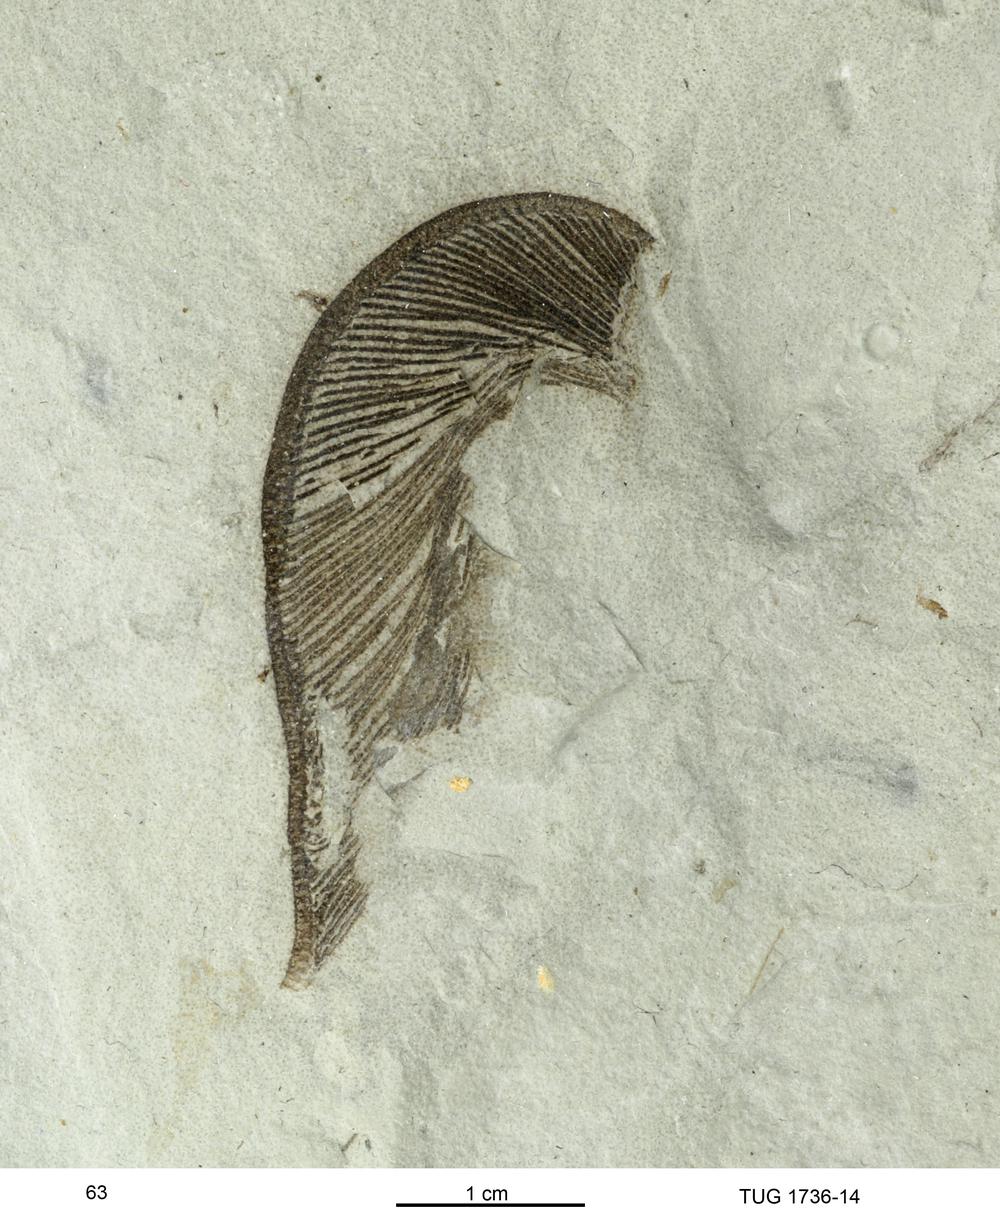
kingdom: Animalia
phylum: Echinodermata
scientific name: Echinodermata
